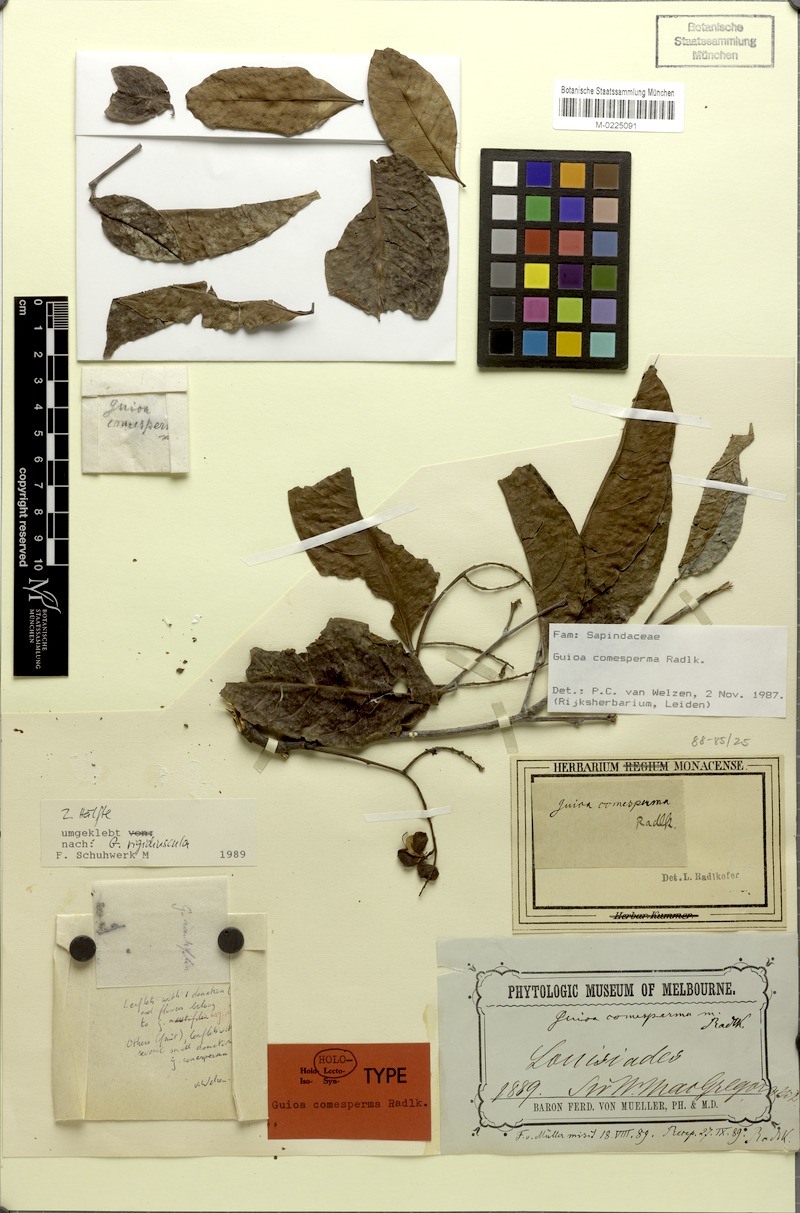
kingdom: Plantae
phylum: Tracheophyta
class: Magnoliopsida
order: Sapindales
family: Sapindaceae
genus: Guioa
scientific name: Guioa comesperma
